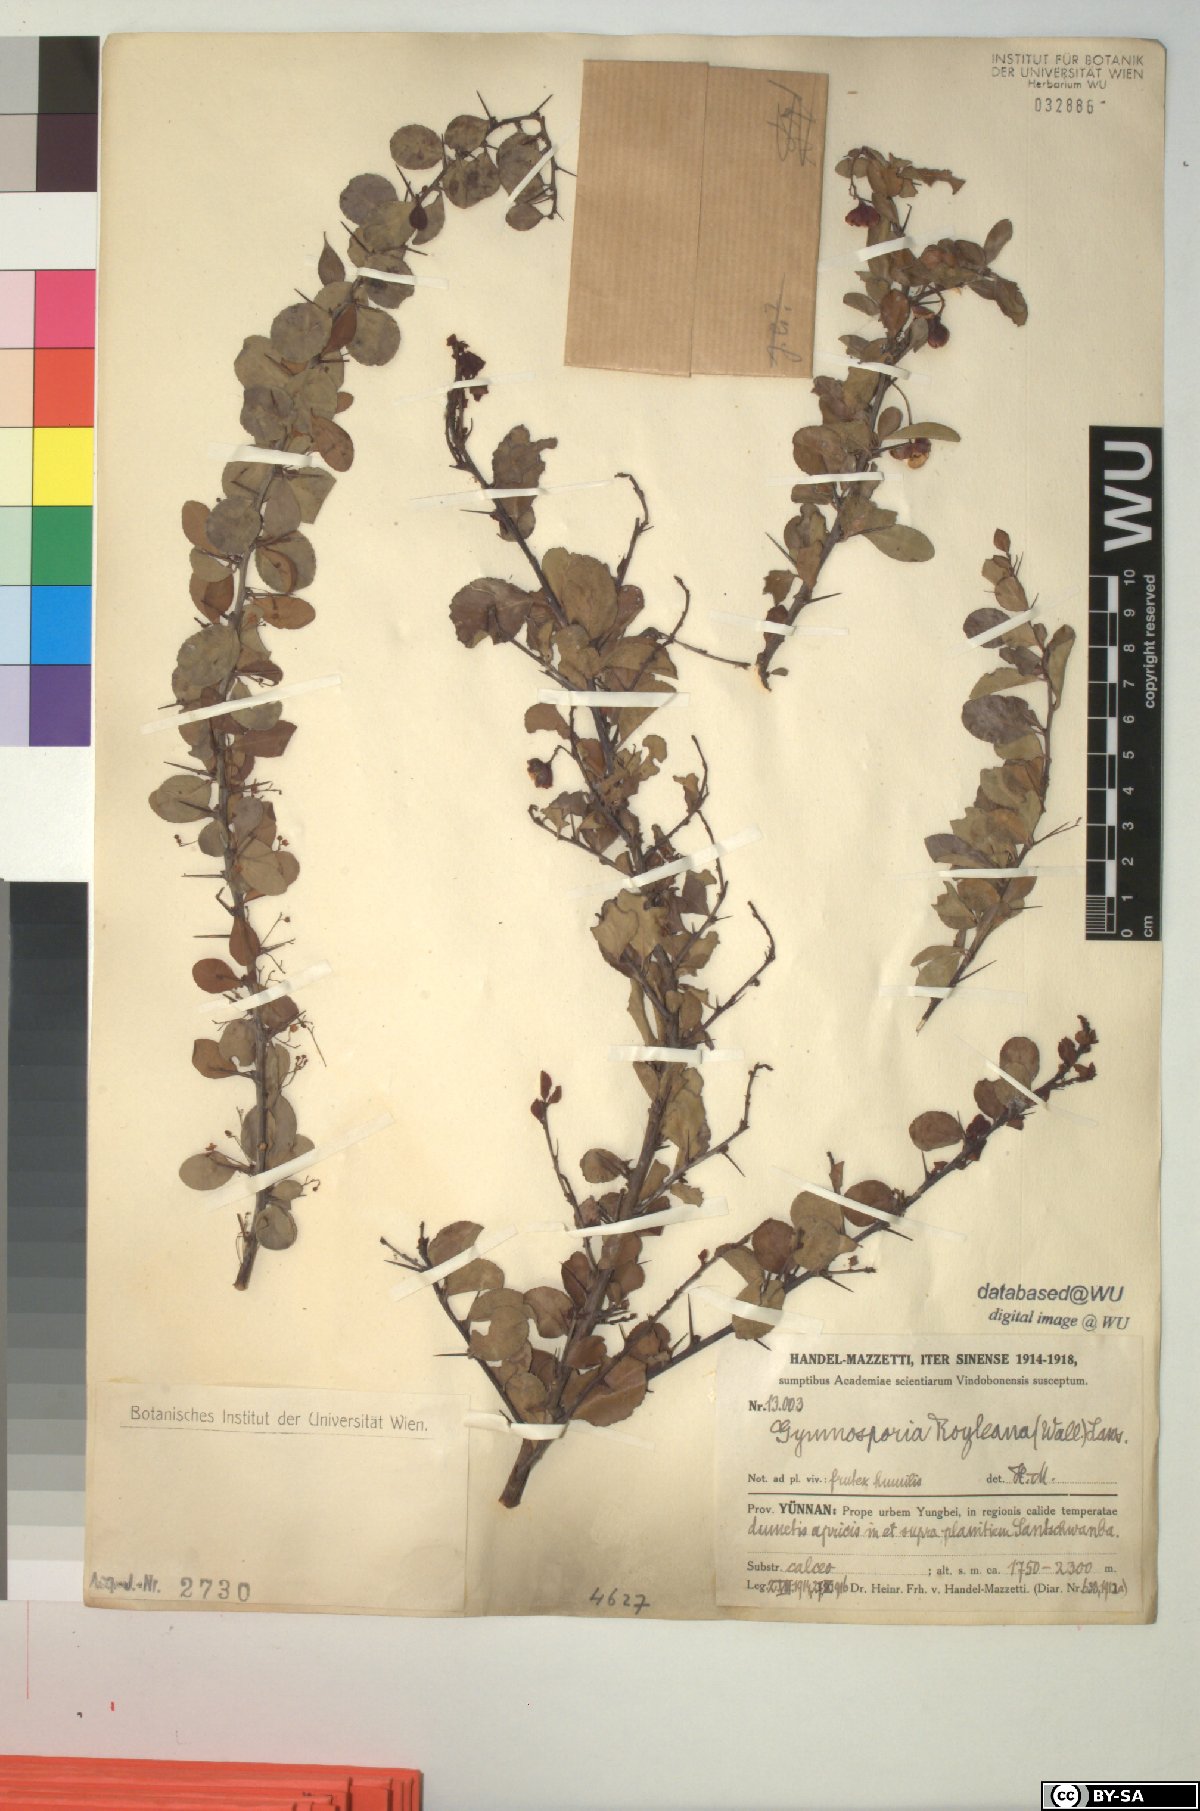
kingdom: Plantae
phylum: Tracheophyta
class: Magnoliopsida
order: Celastrales
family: Celastraceae
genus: Gymnosporia
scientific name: Gymnosporia royleana
